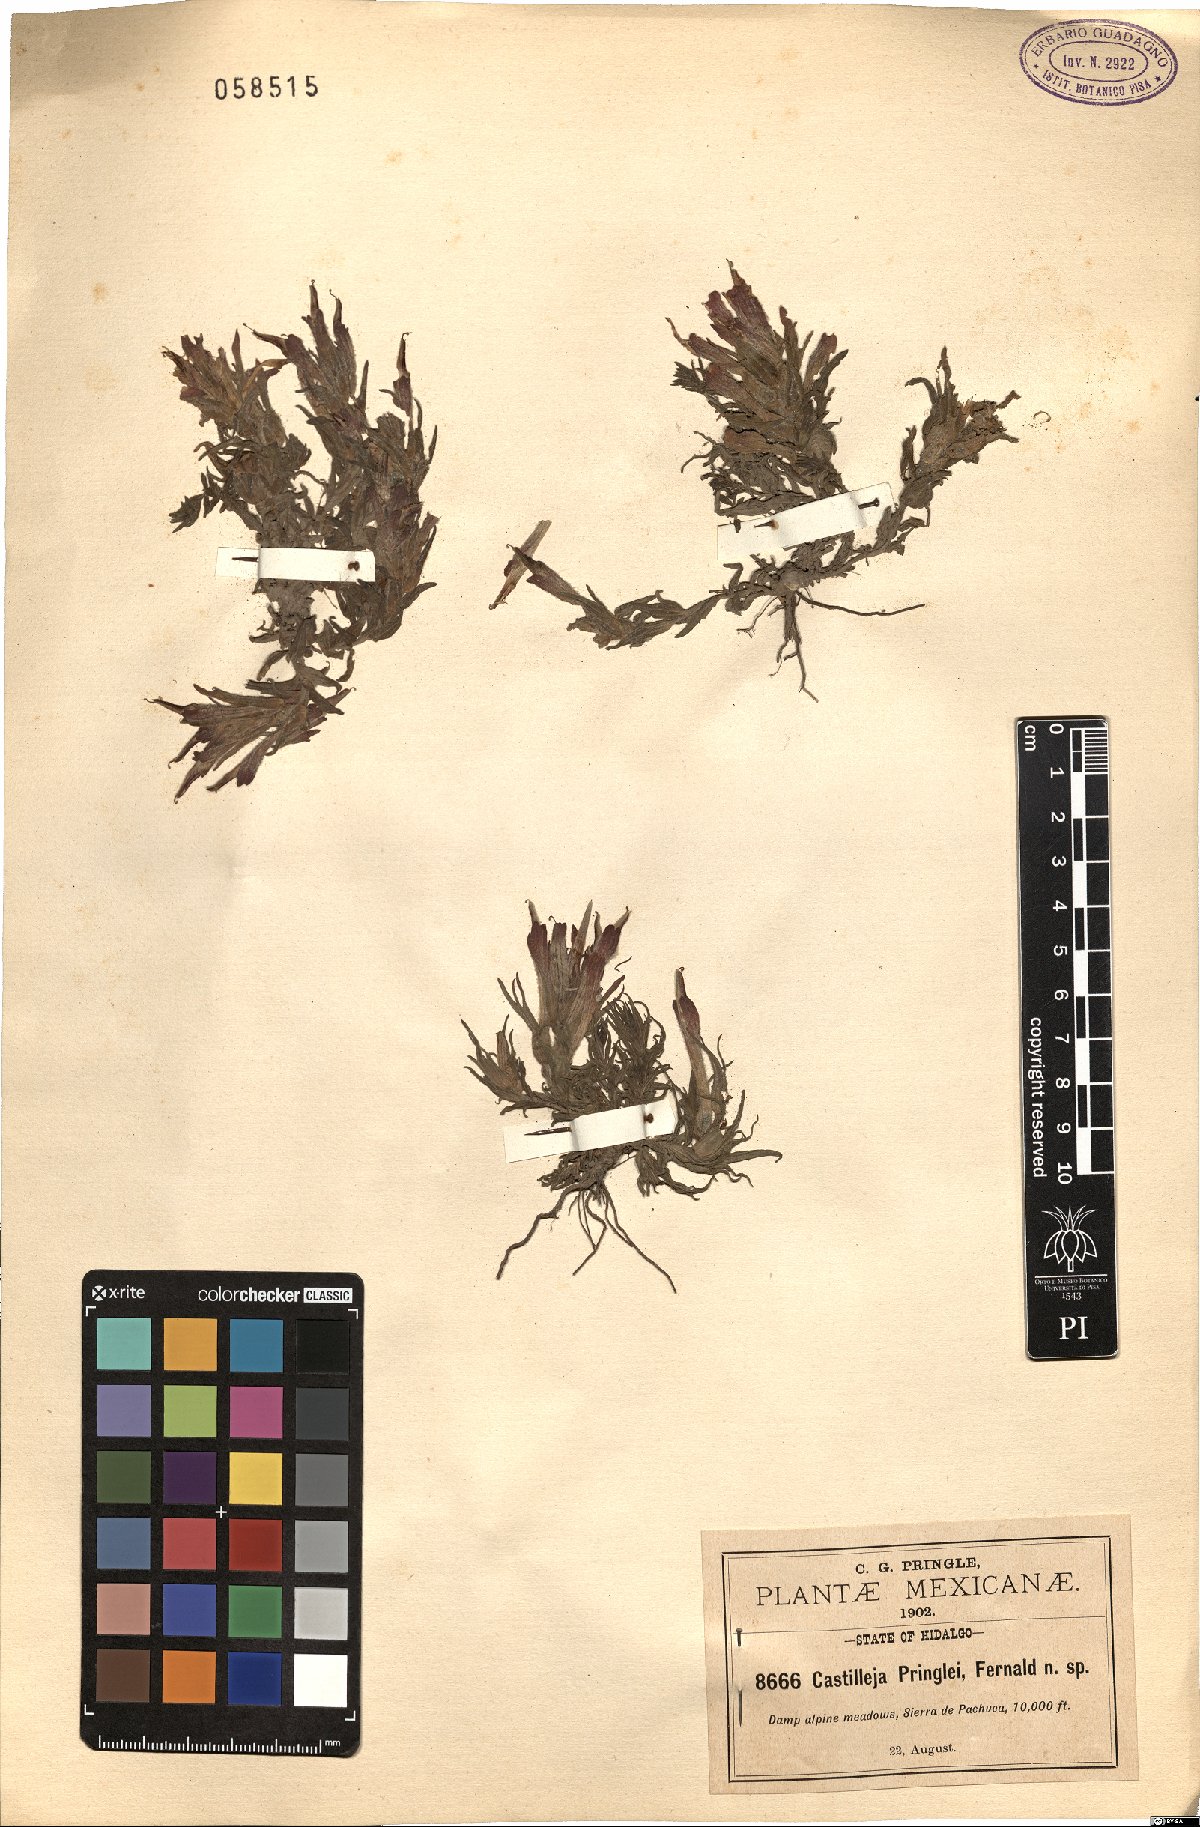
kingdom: Plantae
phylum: Tracheophyta
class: Magnoliopsida
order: Lamiales
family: Orobanchaceae
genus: Castilleja
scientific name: Castilleja pringlei
